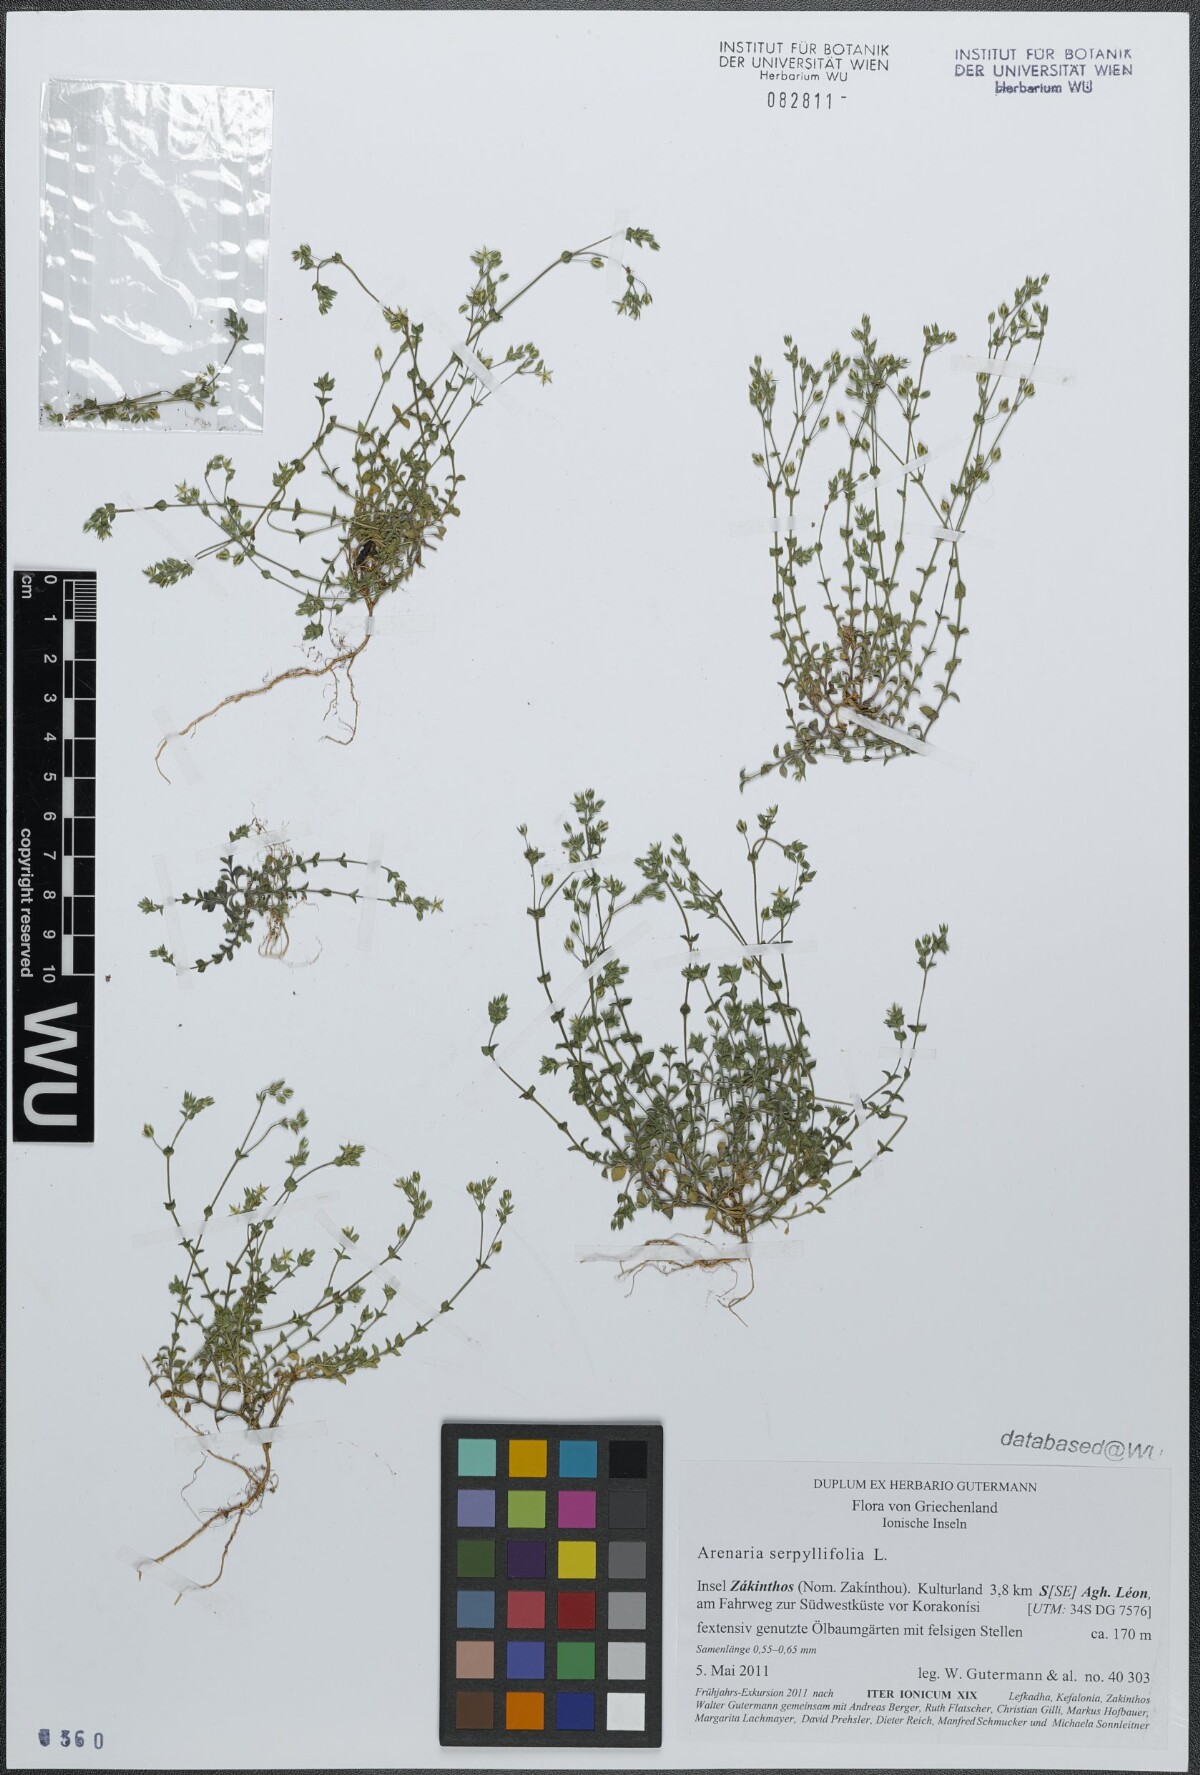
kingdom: Plantae
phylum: Tracheophyta
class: Magnoliopsida
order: Caryophyllales
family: Caryophyllaceae
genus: Arenaria
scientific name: Arenaria serpyllifolia
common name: Thyme-leaved sandwort
